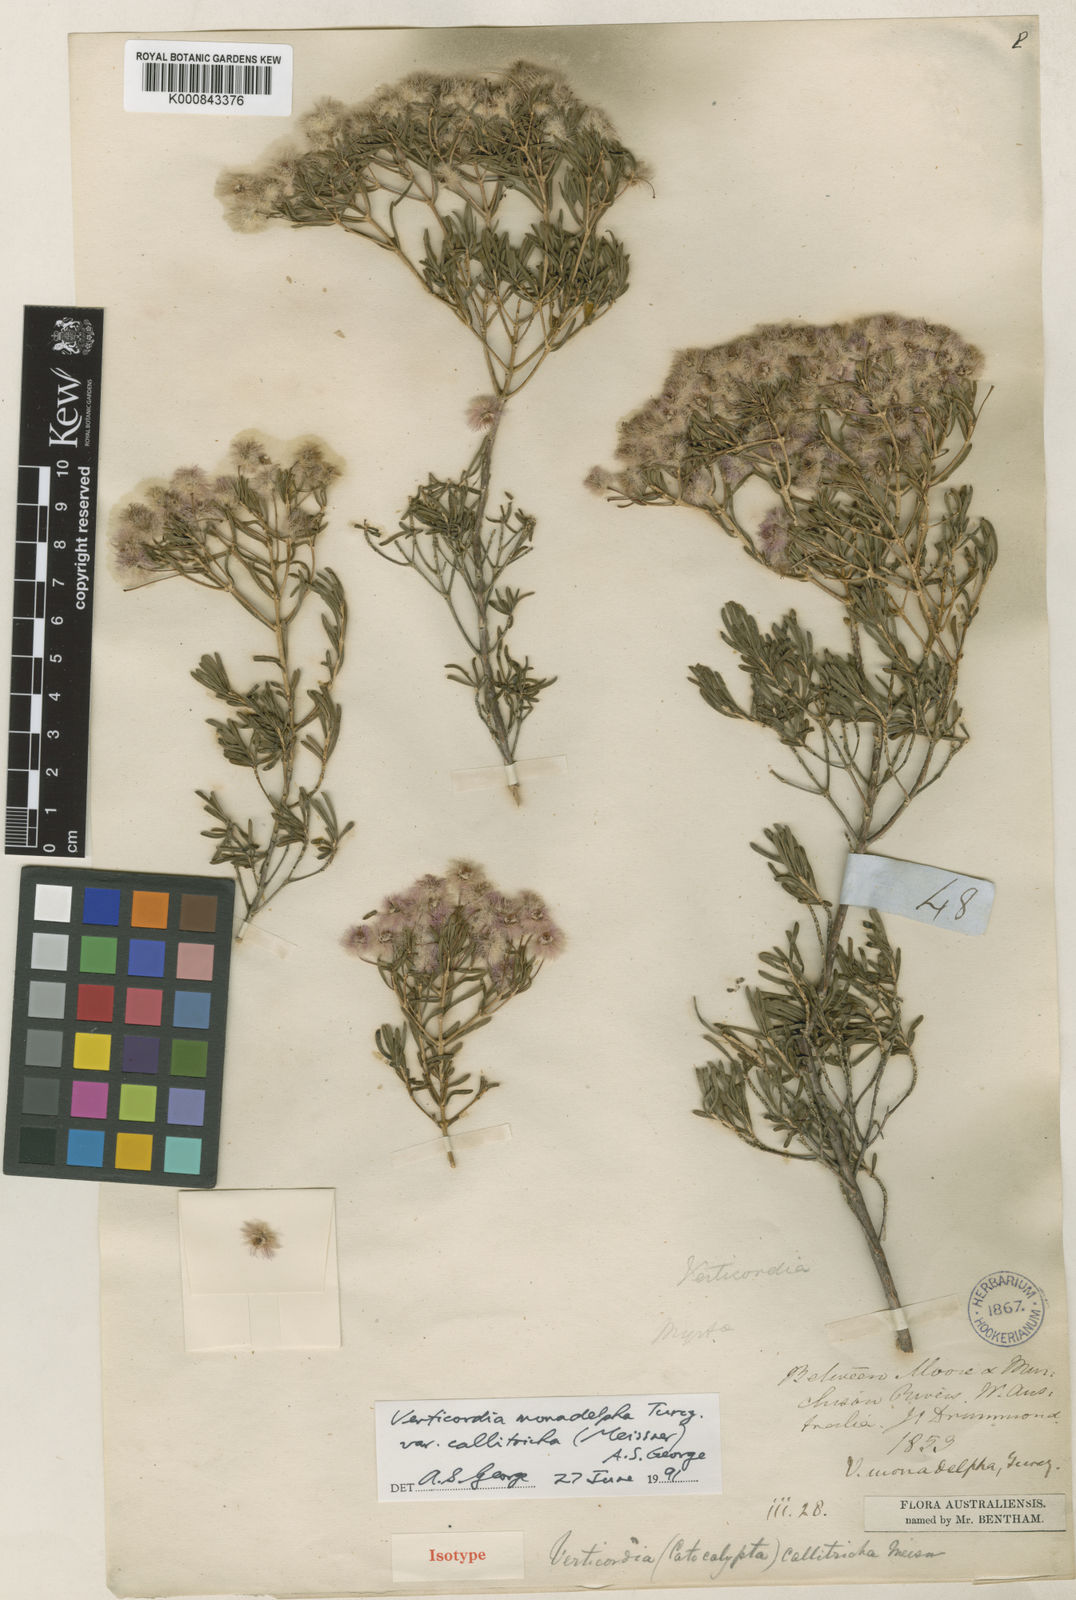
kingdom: Plantae
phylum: Tracheophyta
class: Magnoliopsida
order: Myrtales
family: Myrtaceae
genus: Verticordia
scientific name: Verticordia monadelpha
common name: Woolly feather-flower
